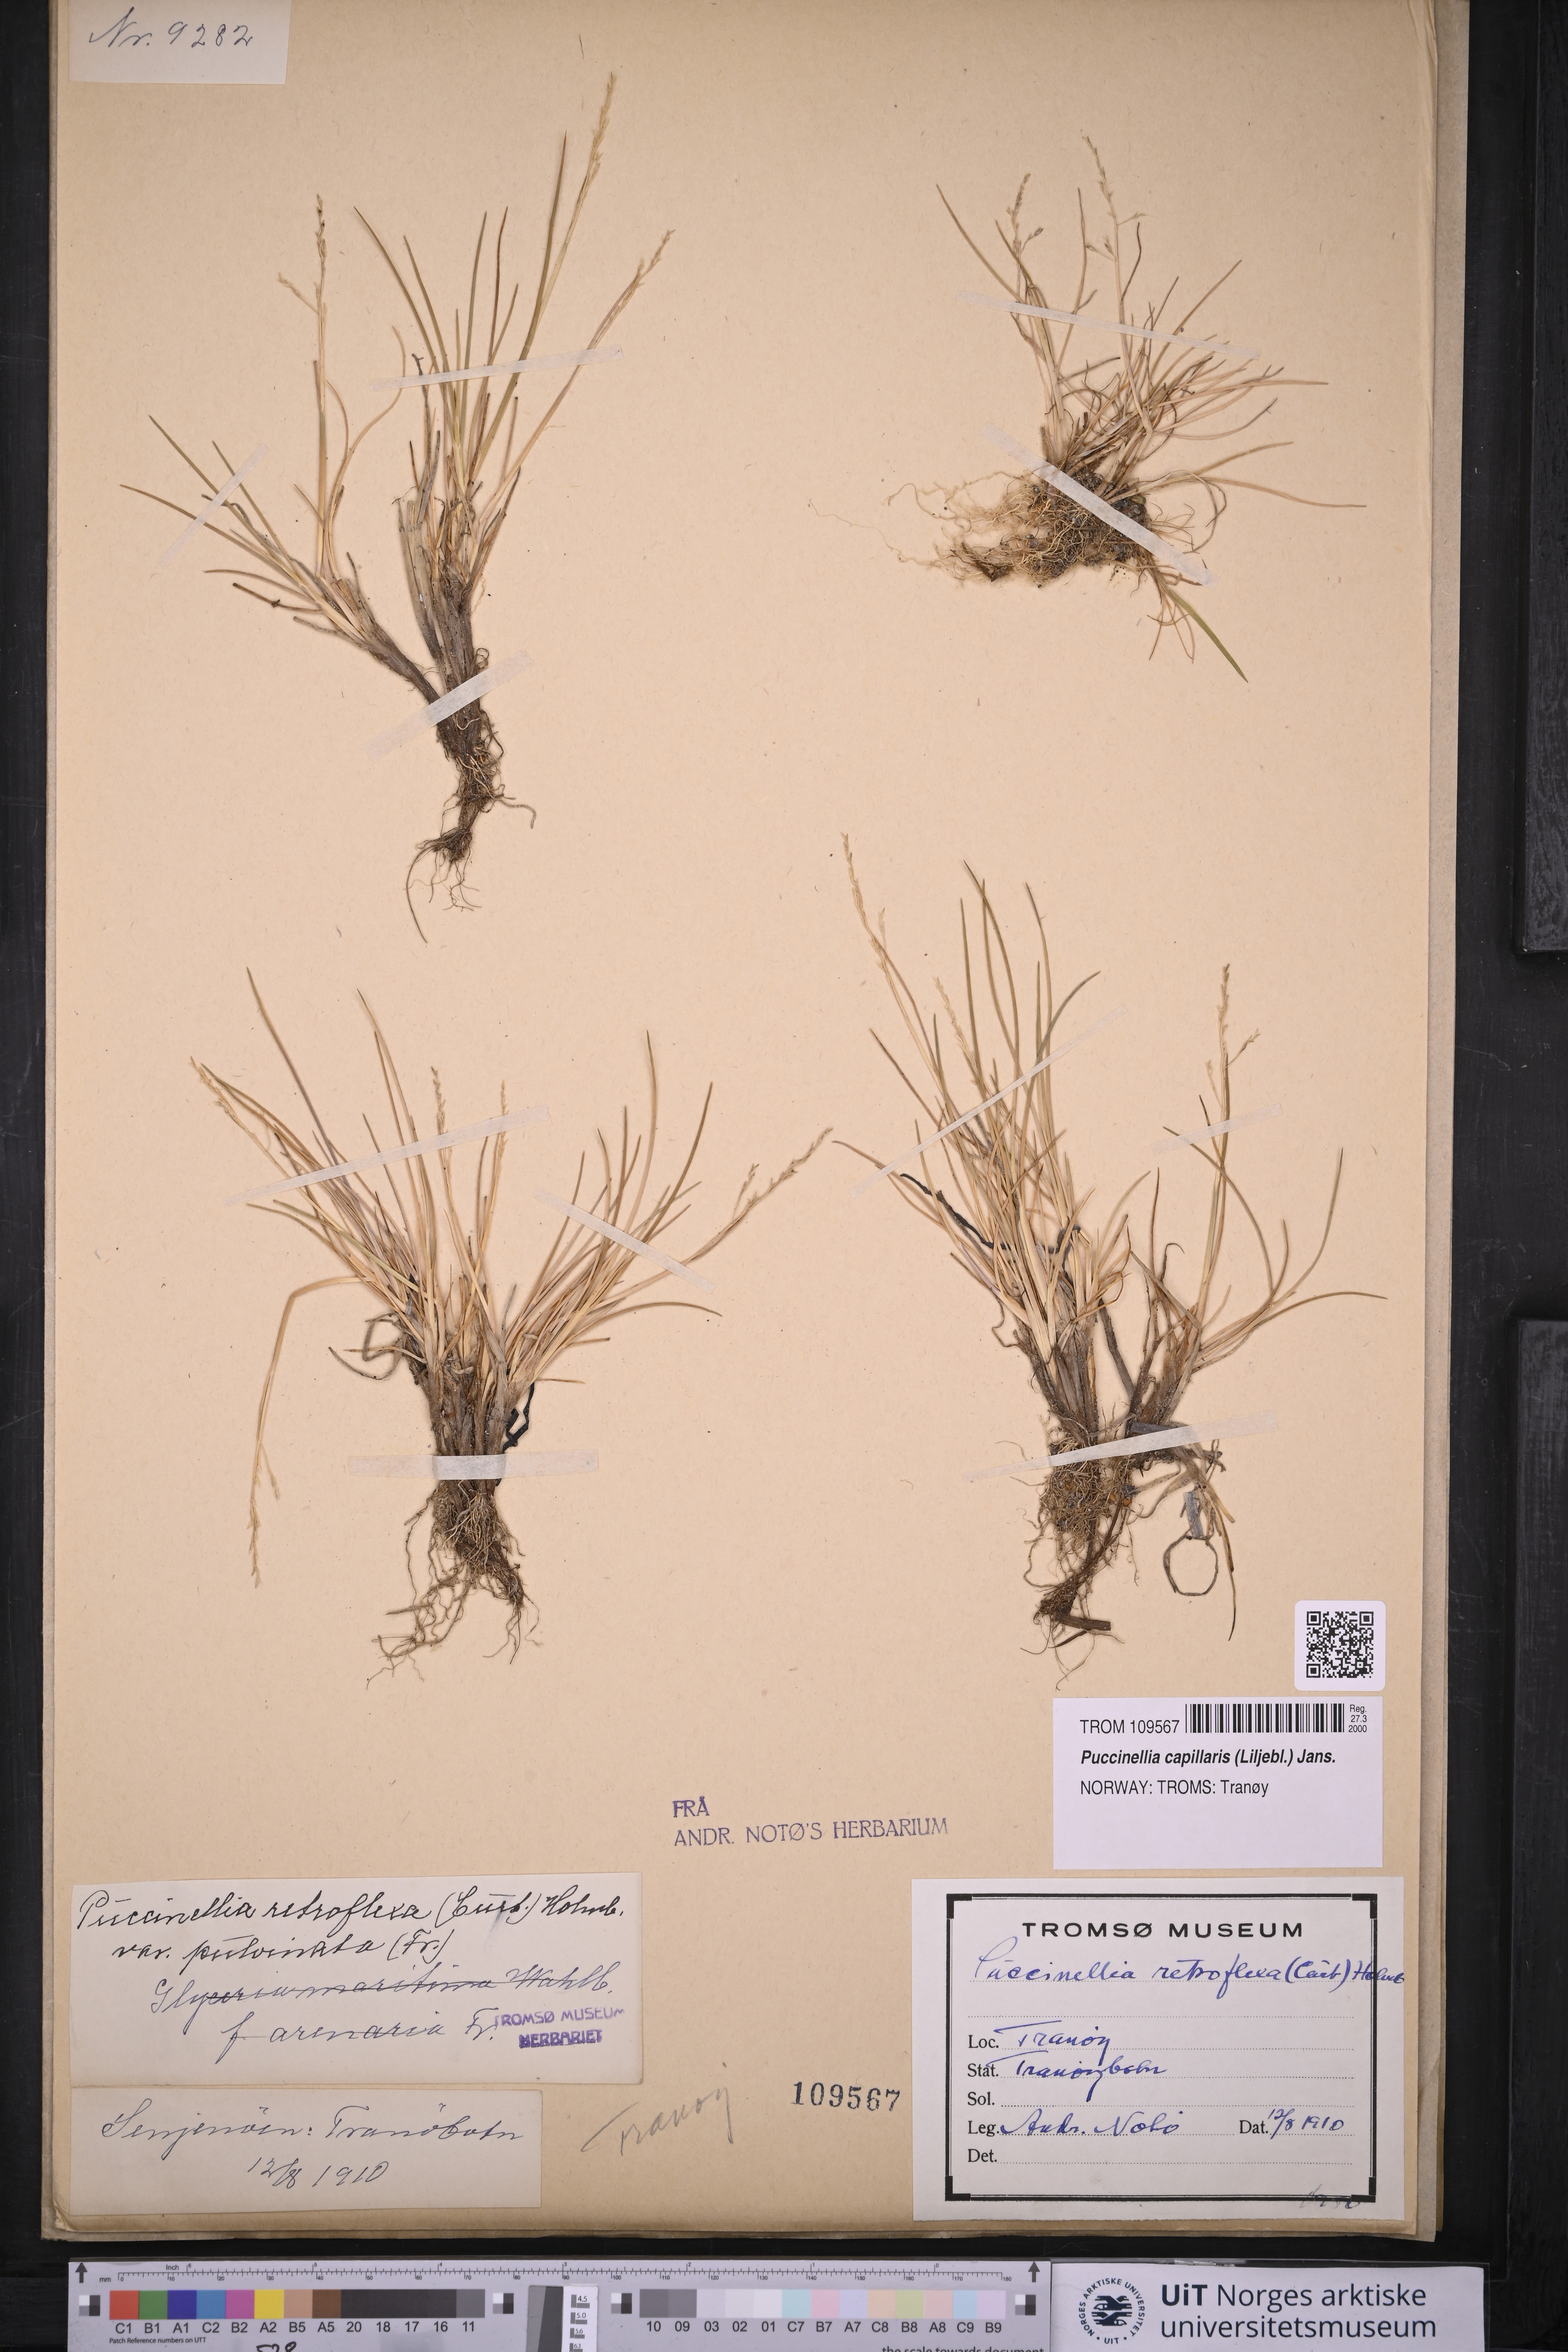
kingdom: Plantae
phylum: Tracheophyta
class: Liliopsida
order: Poales
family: Poaceae
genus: Puccinellia
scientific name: Puccinellia distans
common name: Weeping alkaligrass
